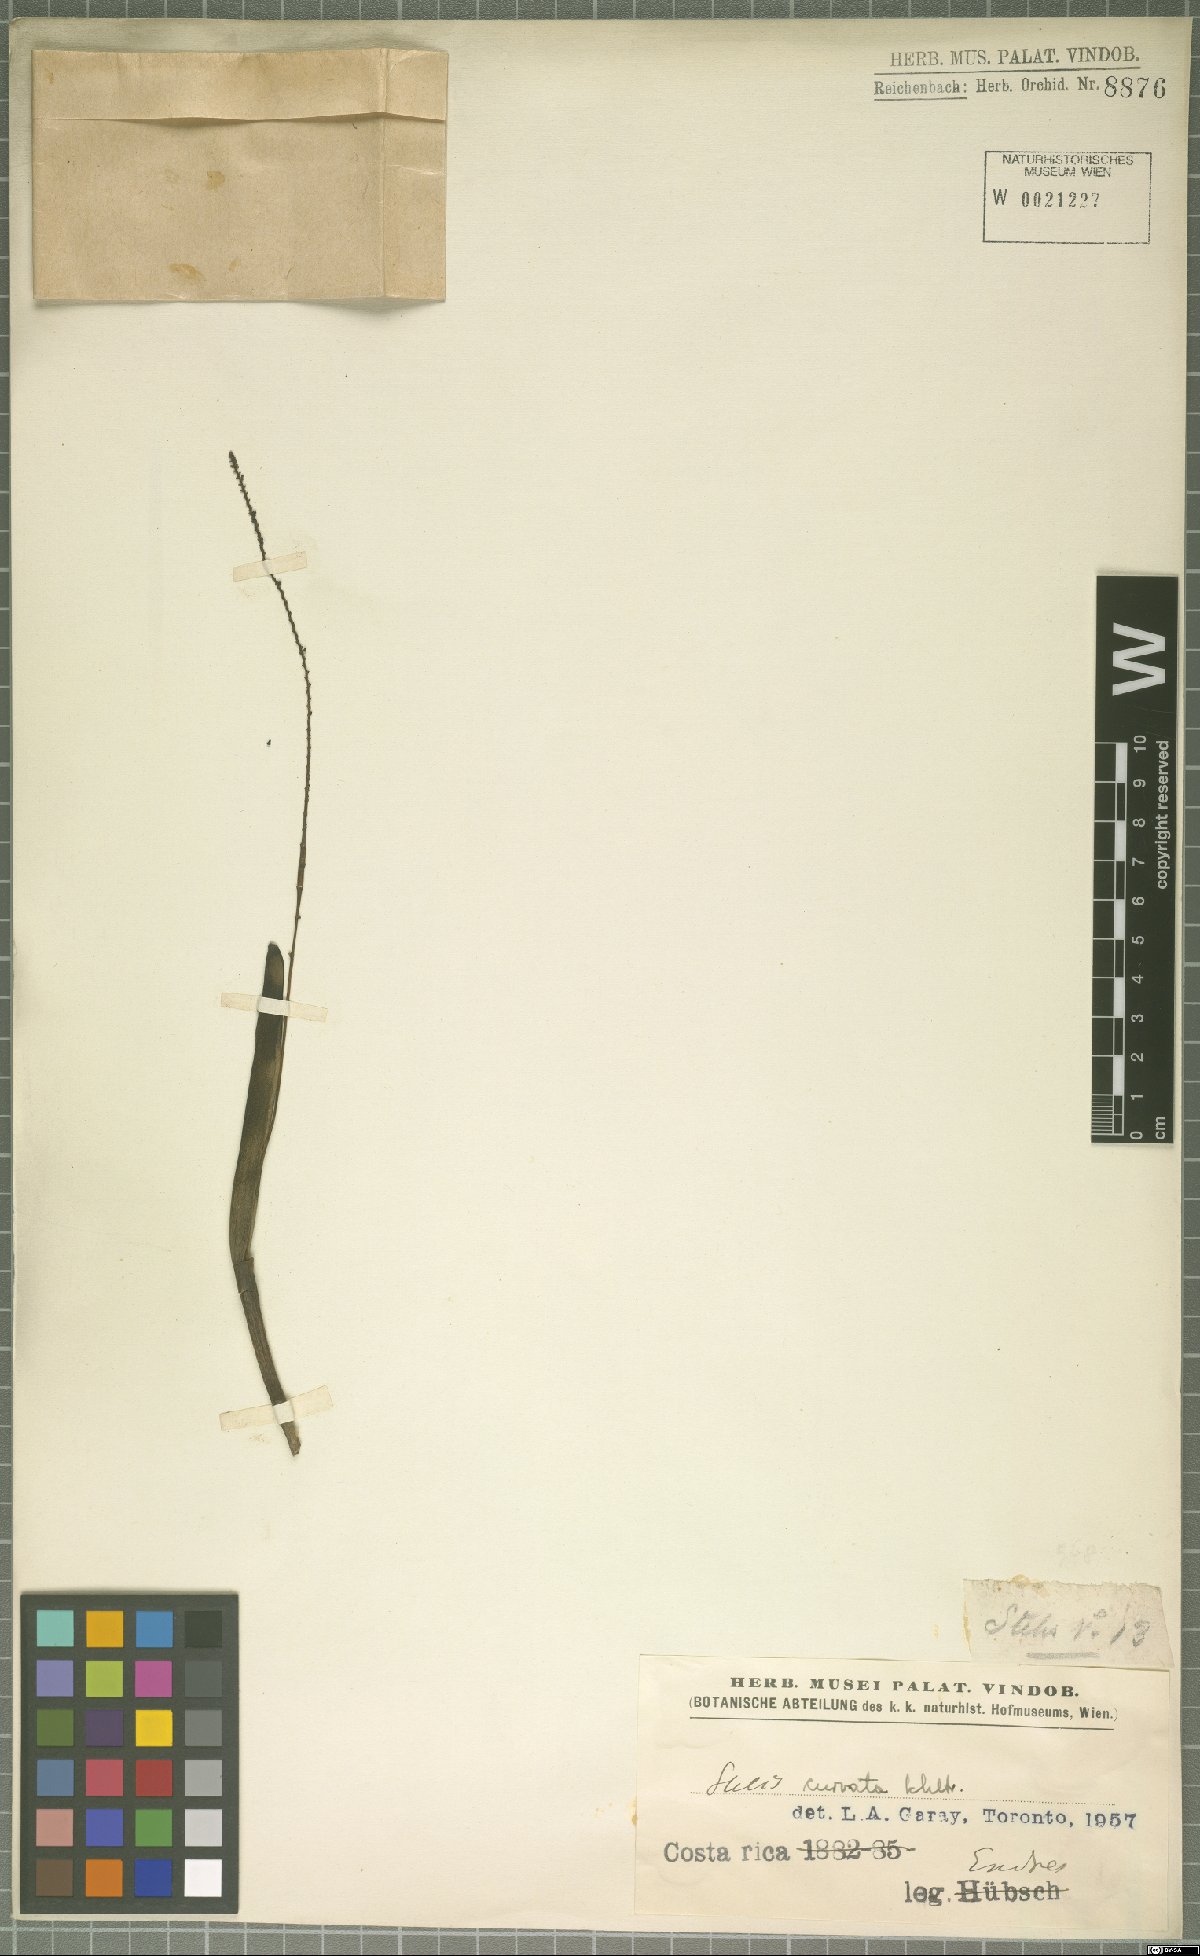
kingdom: Plantae
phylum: Tracheophyta
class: Liliopsida
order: Asparagales
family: Orchidaceae
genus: Stelis
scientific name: Stelis purpurascens
